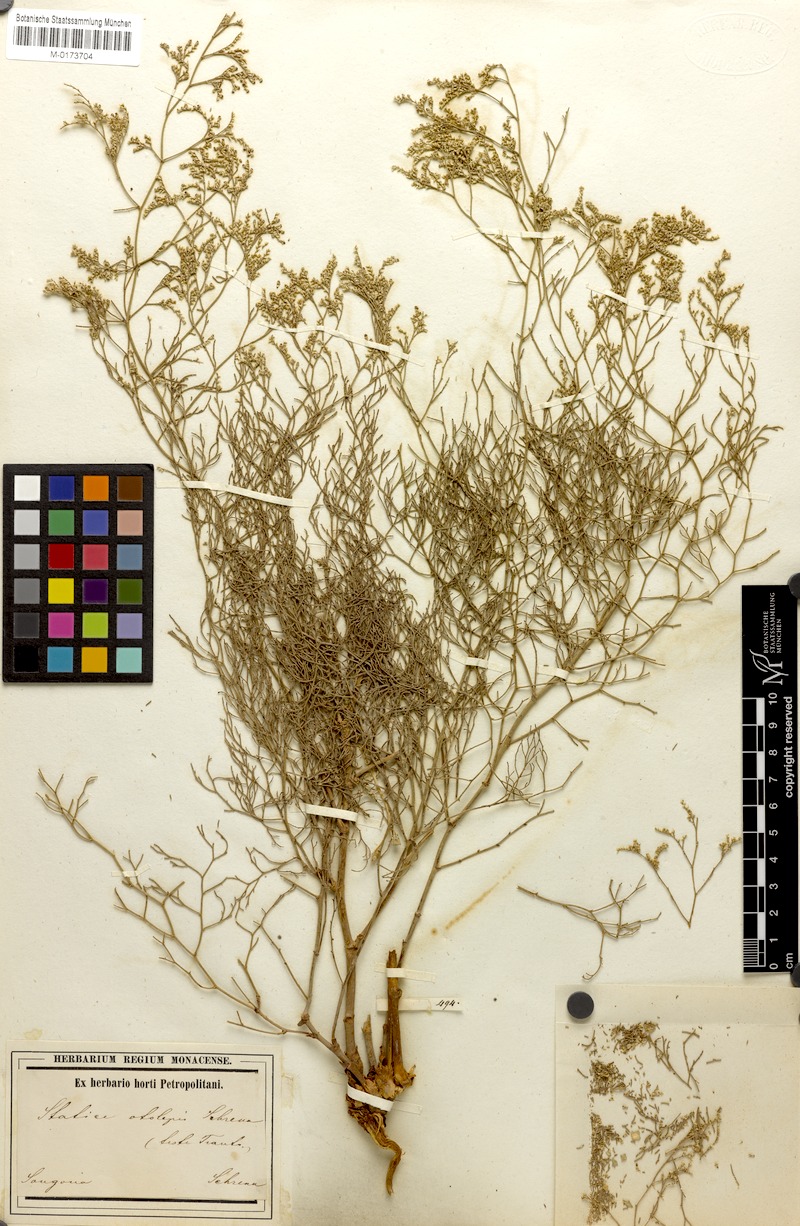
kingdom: Plantae
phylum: Tracheophyta
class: Magnoliopsida
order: Caryophyllales
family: Plumbaginaceae
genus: Limonium
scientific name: Limonium otolepis
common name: Saltmarsh sea lavender
